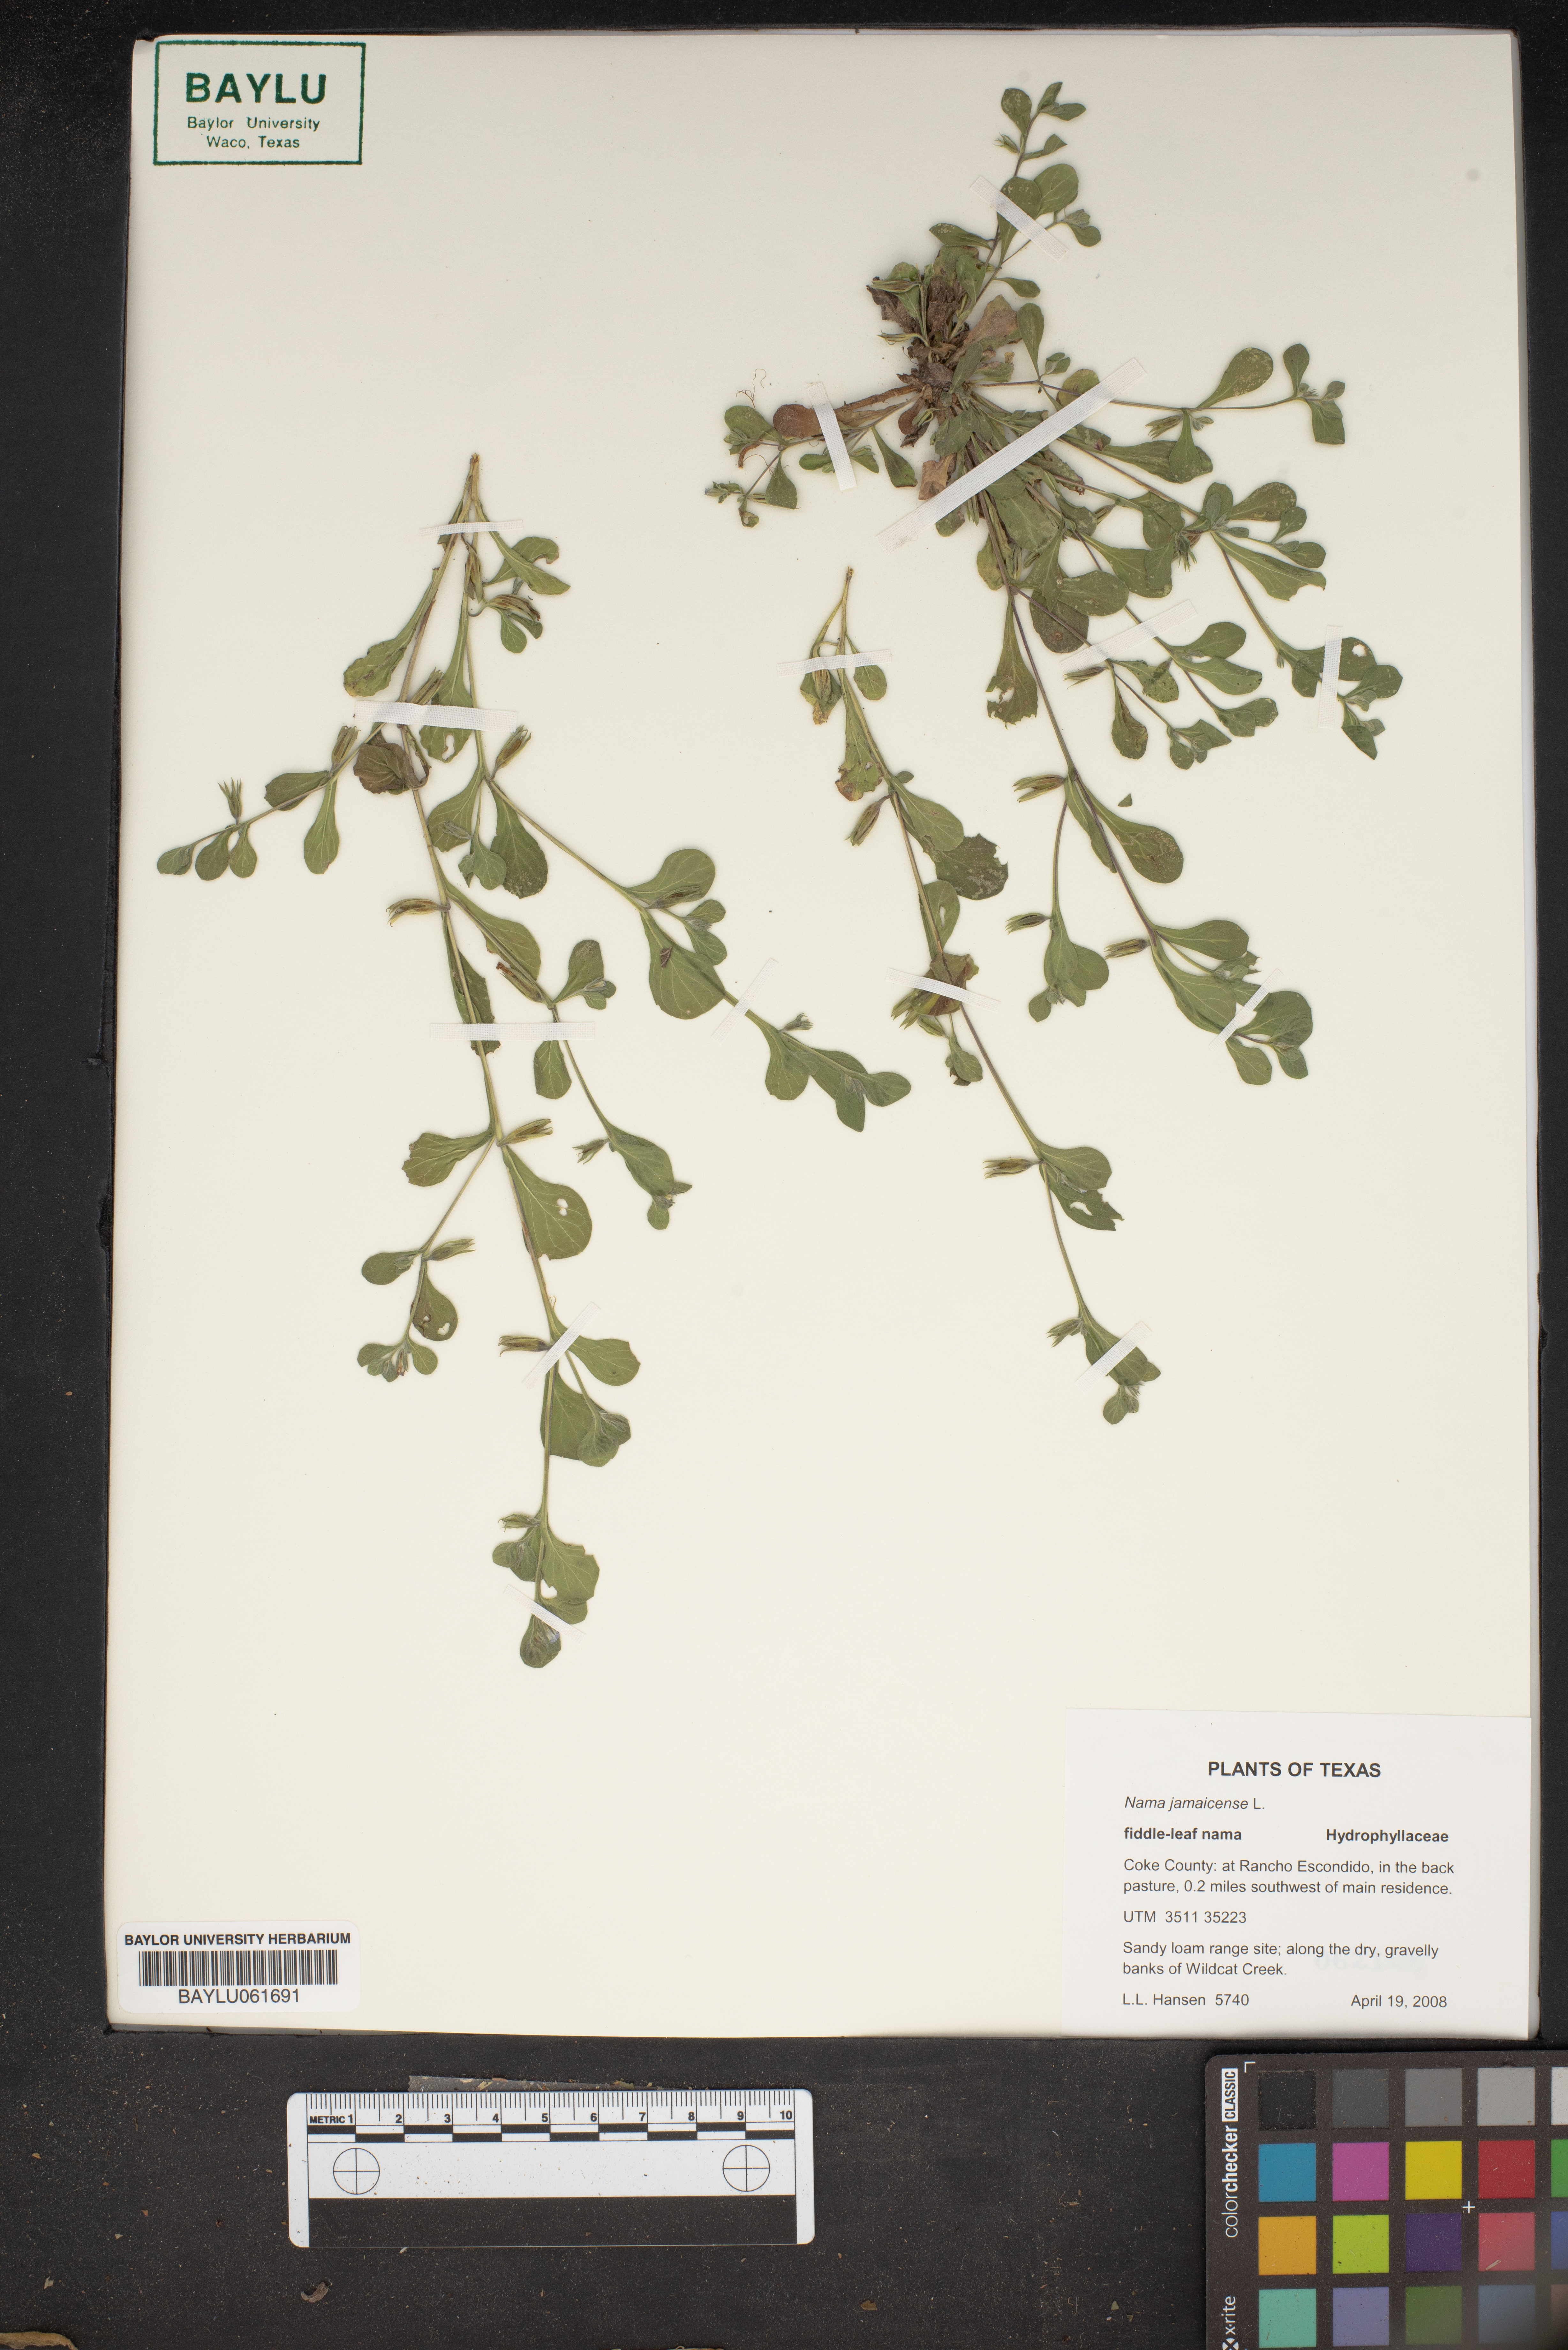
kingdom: Plantae
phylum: Tracheophyta
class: Magnoliopsida
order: Boraginales
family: Namaceae
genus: Nama
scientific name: Nama jamaicense
